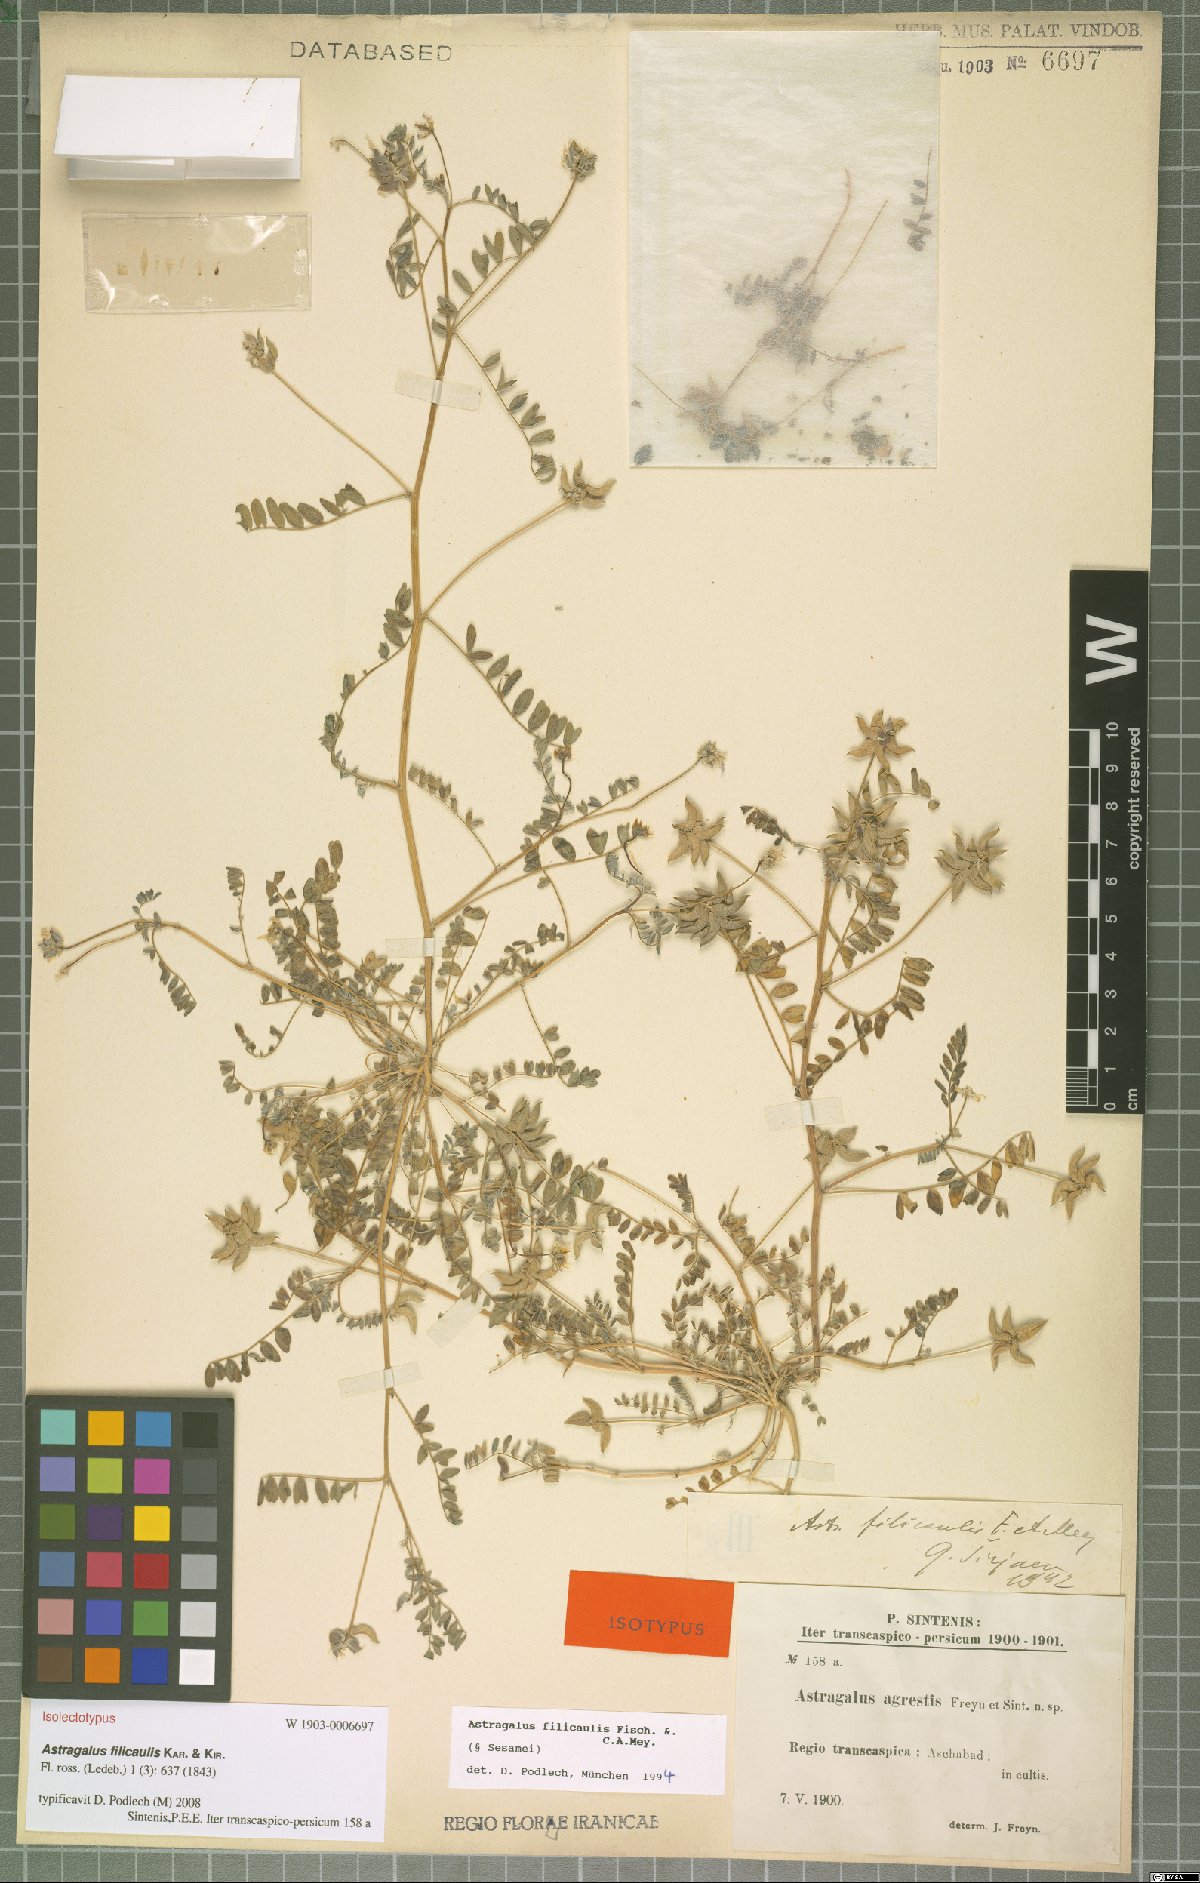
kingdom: Plantae
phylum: Tracheophyta
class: Magnoliopsida
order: Fabales
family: Fabaceae
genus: Astragalus
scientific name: Astragalus filicaulis
